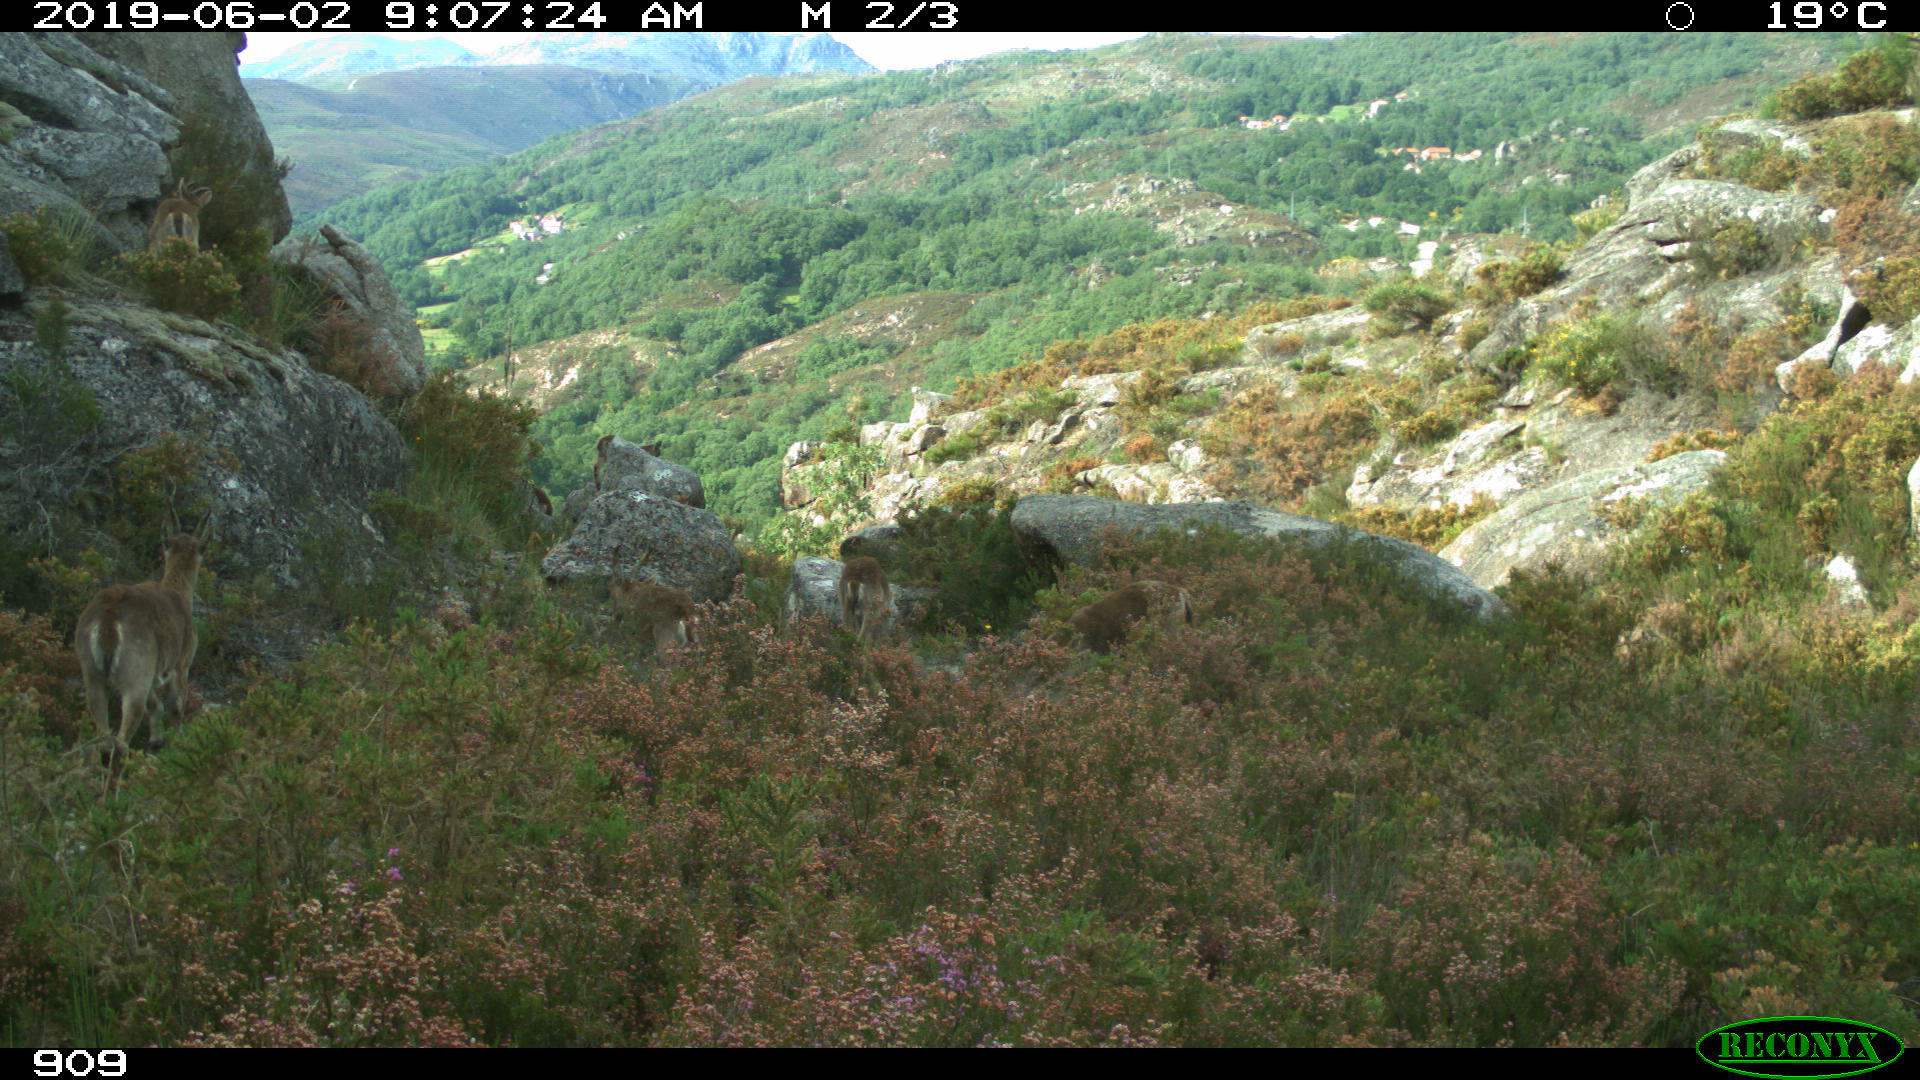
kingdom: Animalia
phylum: Chordata
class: Mammalia
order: Artiodactyla
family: Bovidae
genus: Capra
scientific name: Capra pyrenaica
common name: Spanish ibex
